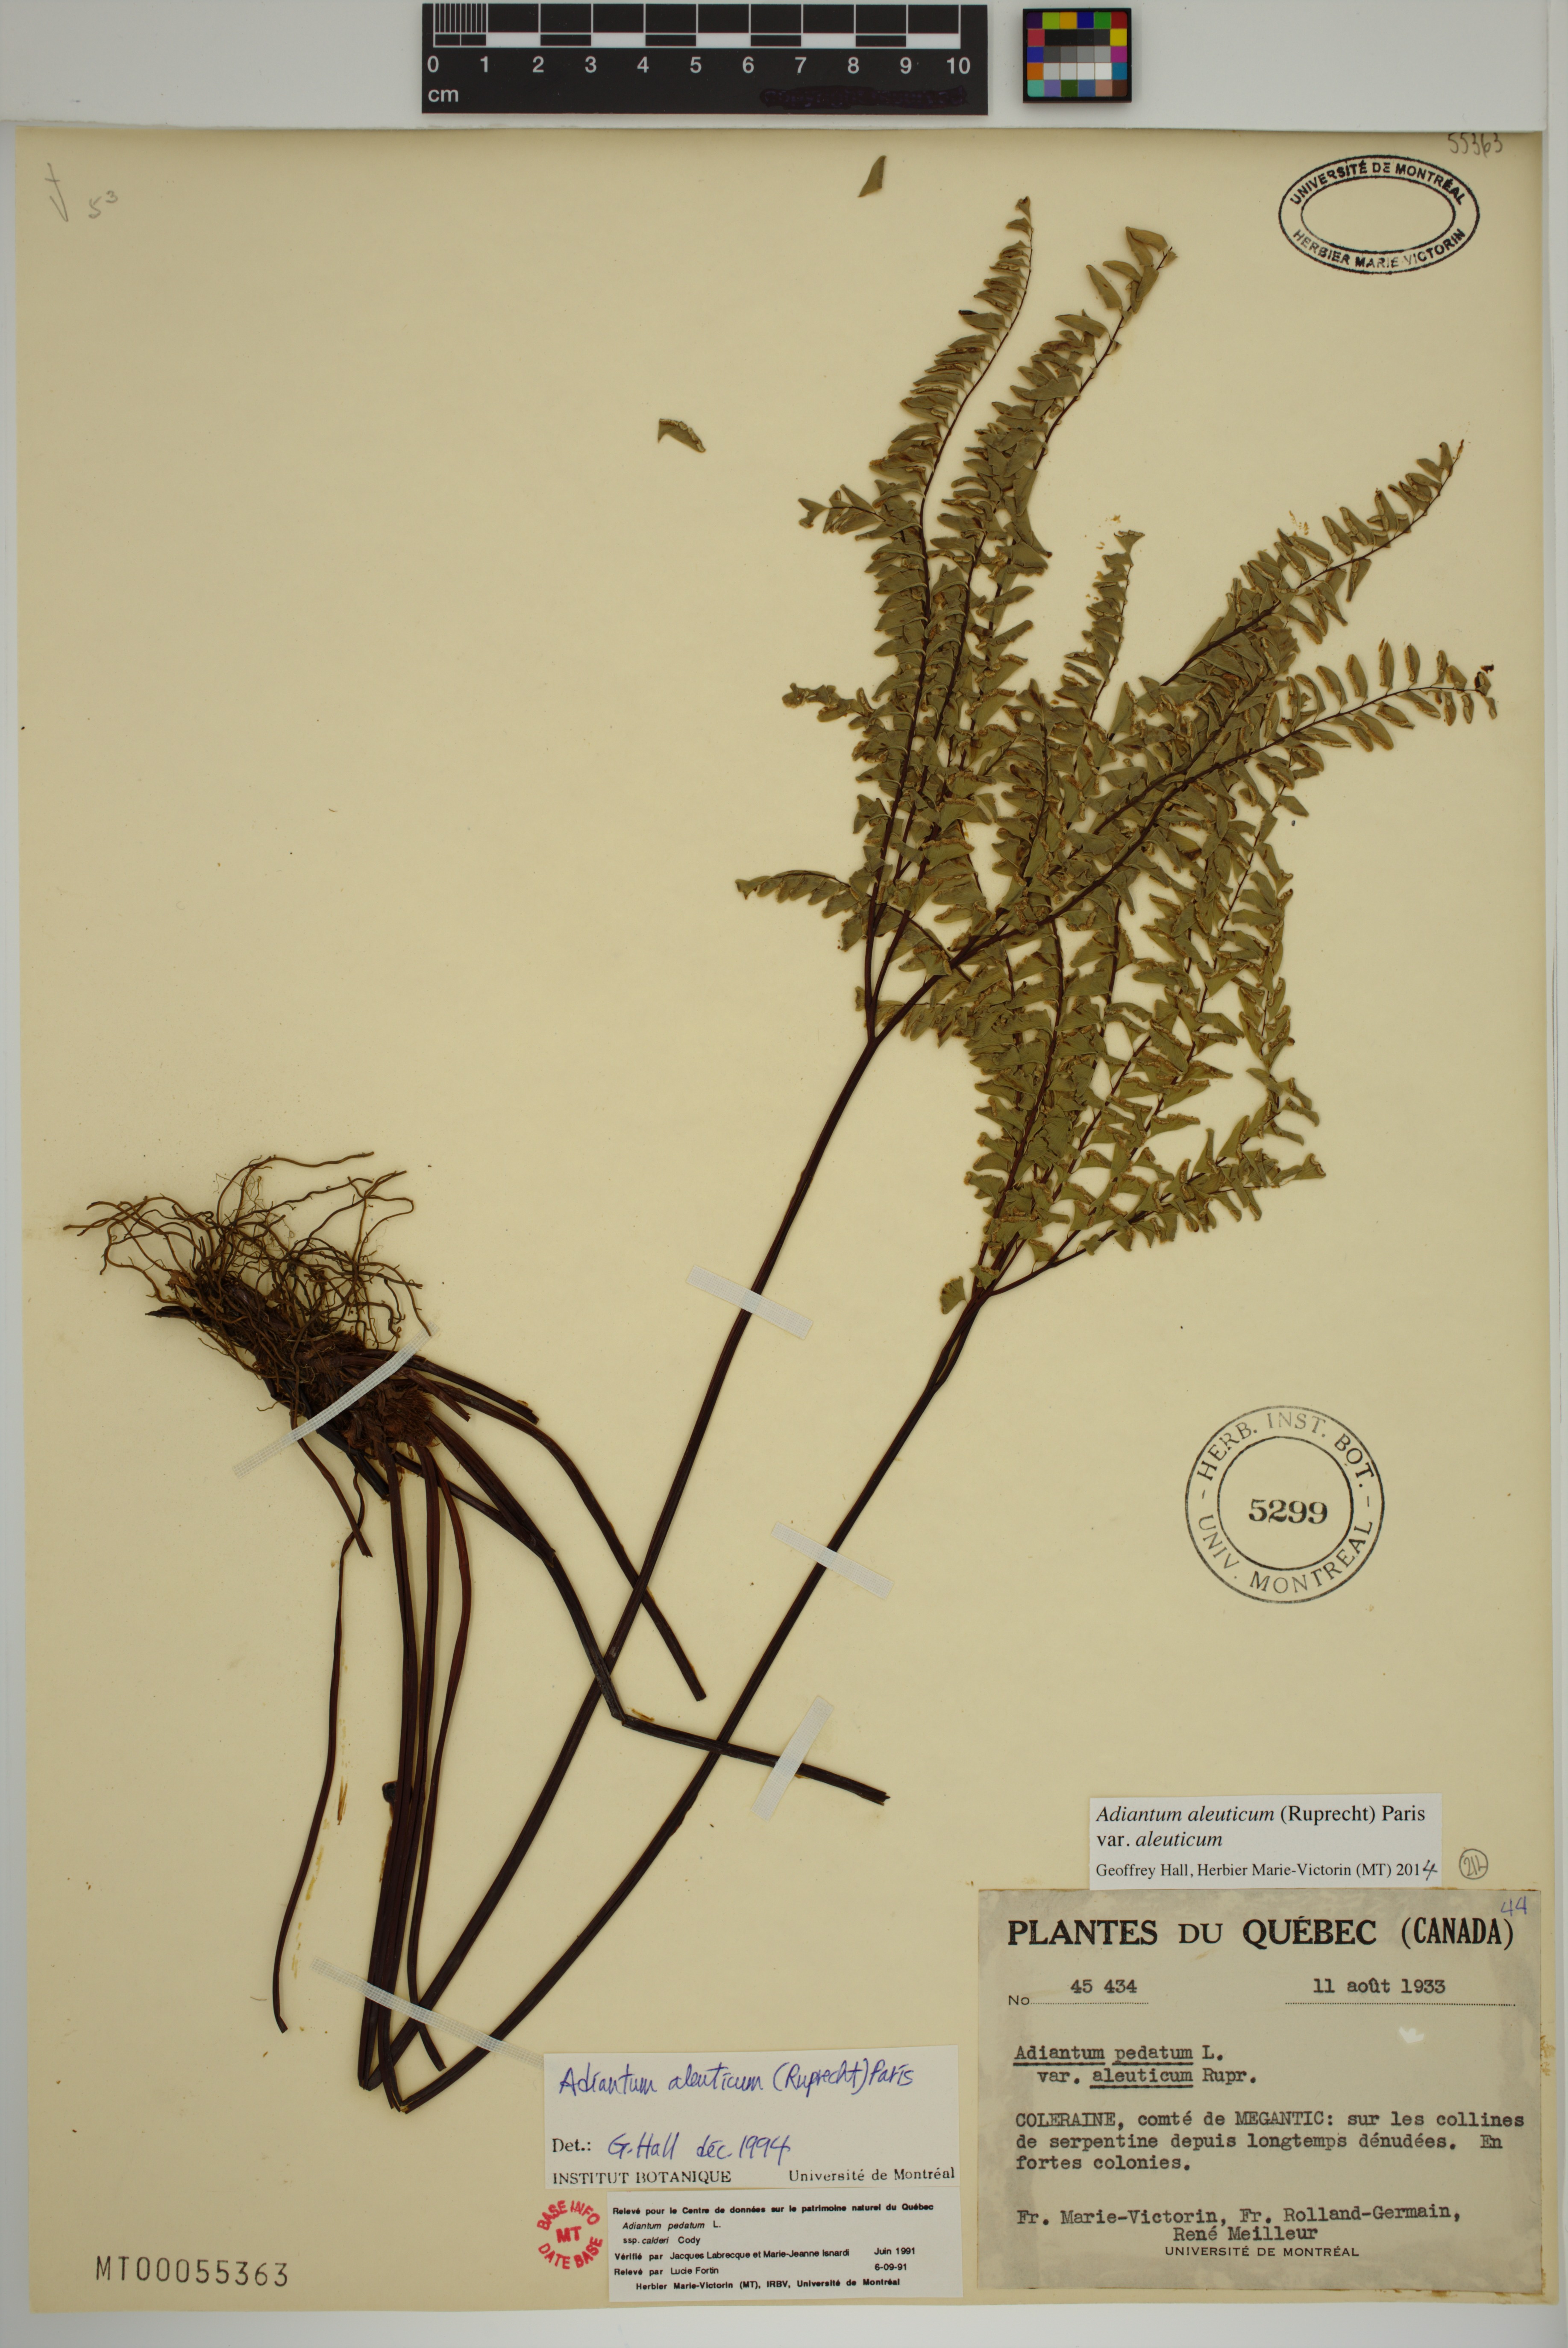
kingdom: Plantae
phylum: Tracheophyta
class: Polypodiopsida
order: Polypodiales
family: Pteridaceae
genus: Adiantum
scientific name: Adiantum aleuticum
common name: Aleutian maidenhair fern
